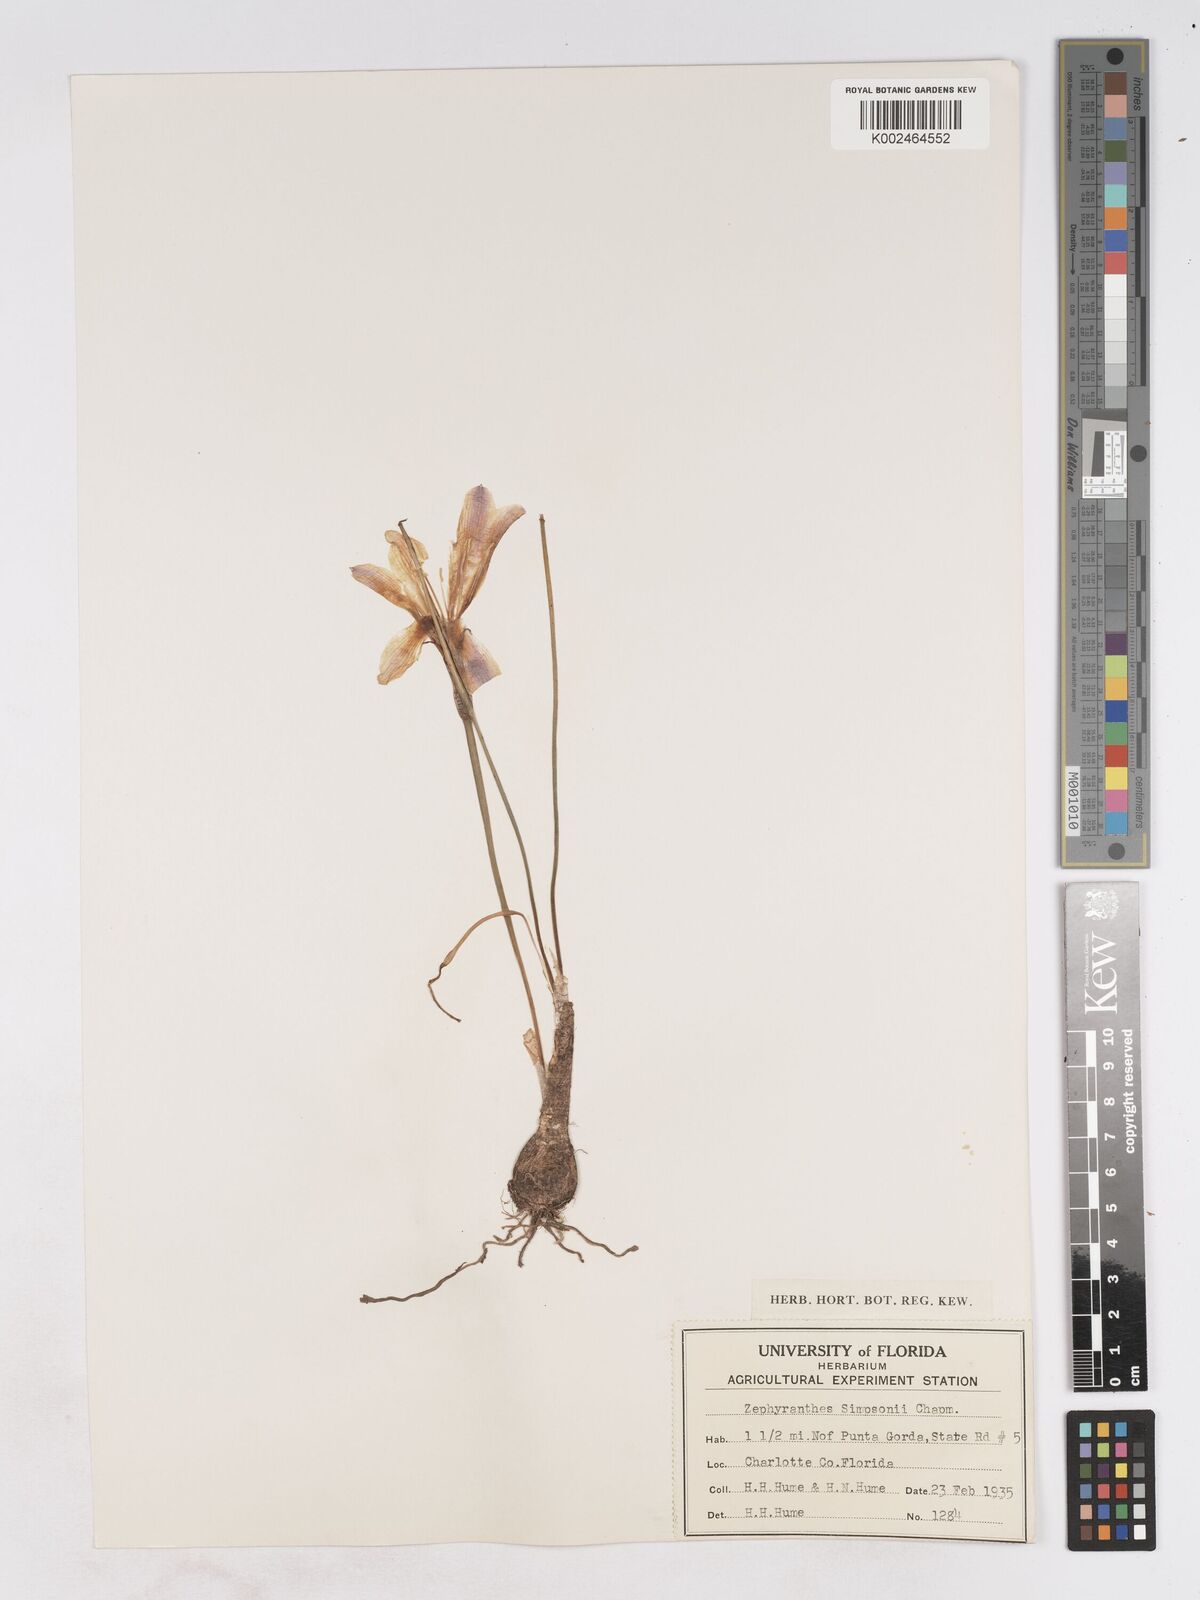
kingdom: Plantae
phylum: Tracheophyta
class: Liliopsida
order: Asparagales
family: Amaryllidaceae
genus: Zephyranthes
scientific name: Zephyranthes simpsonii
